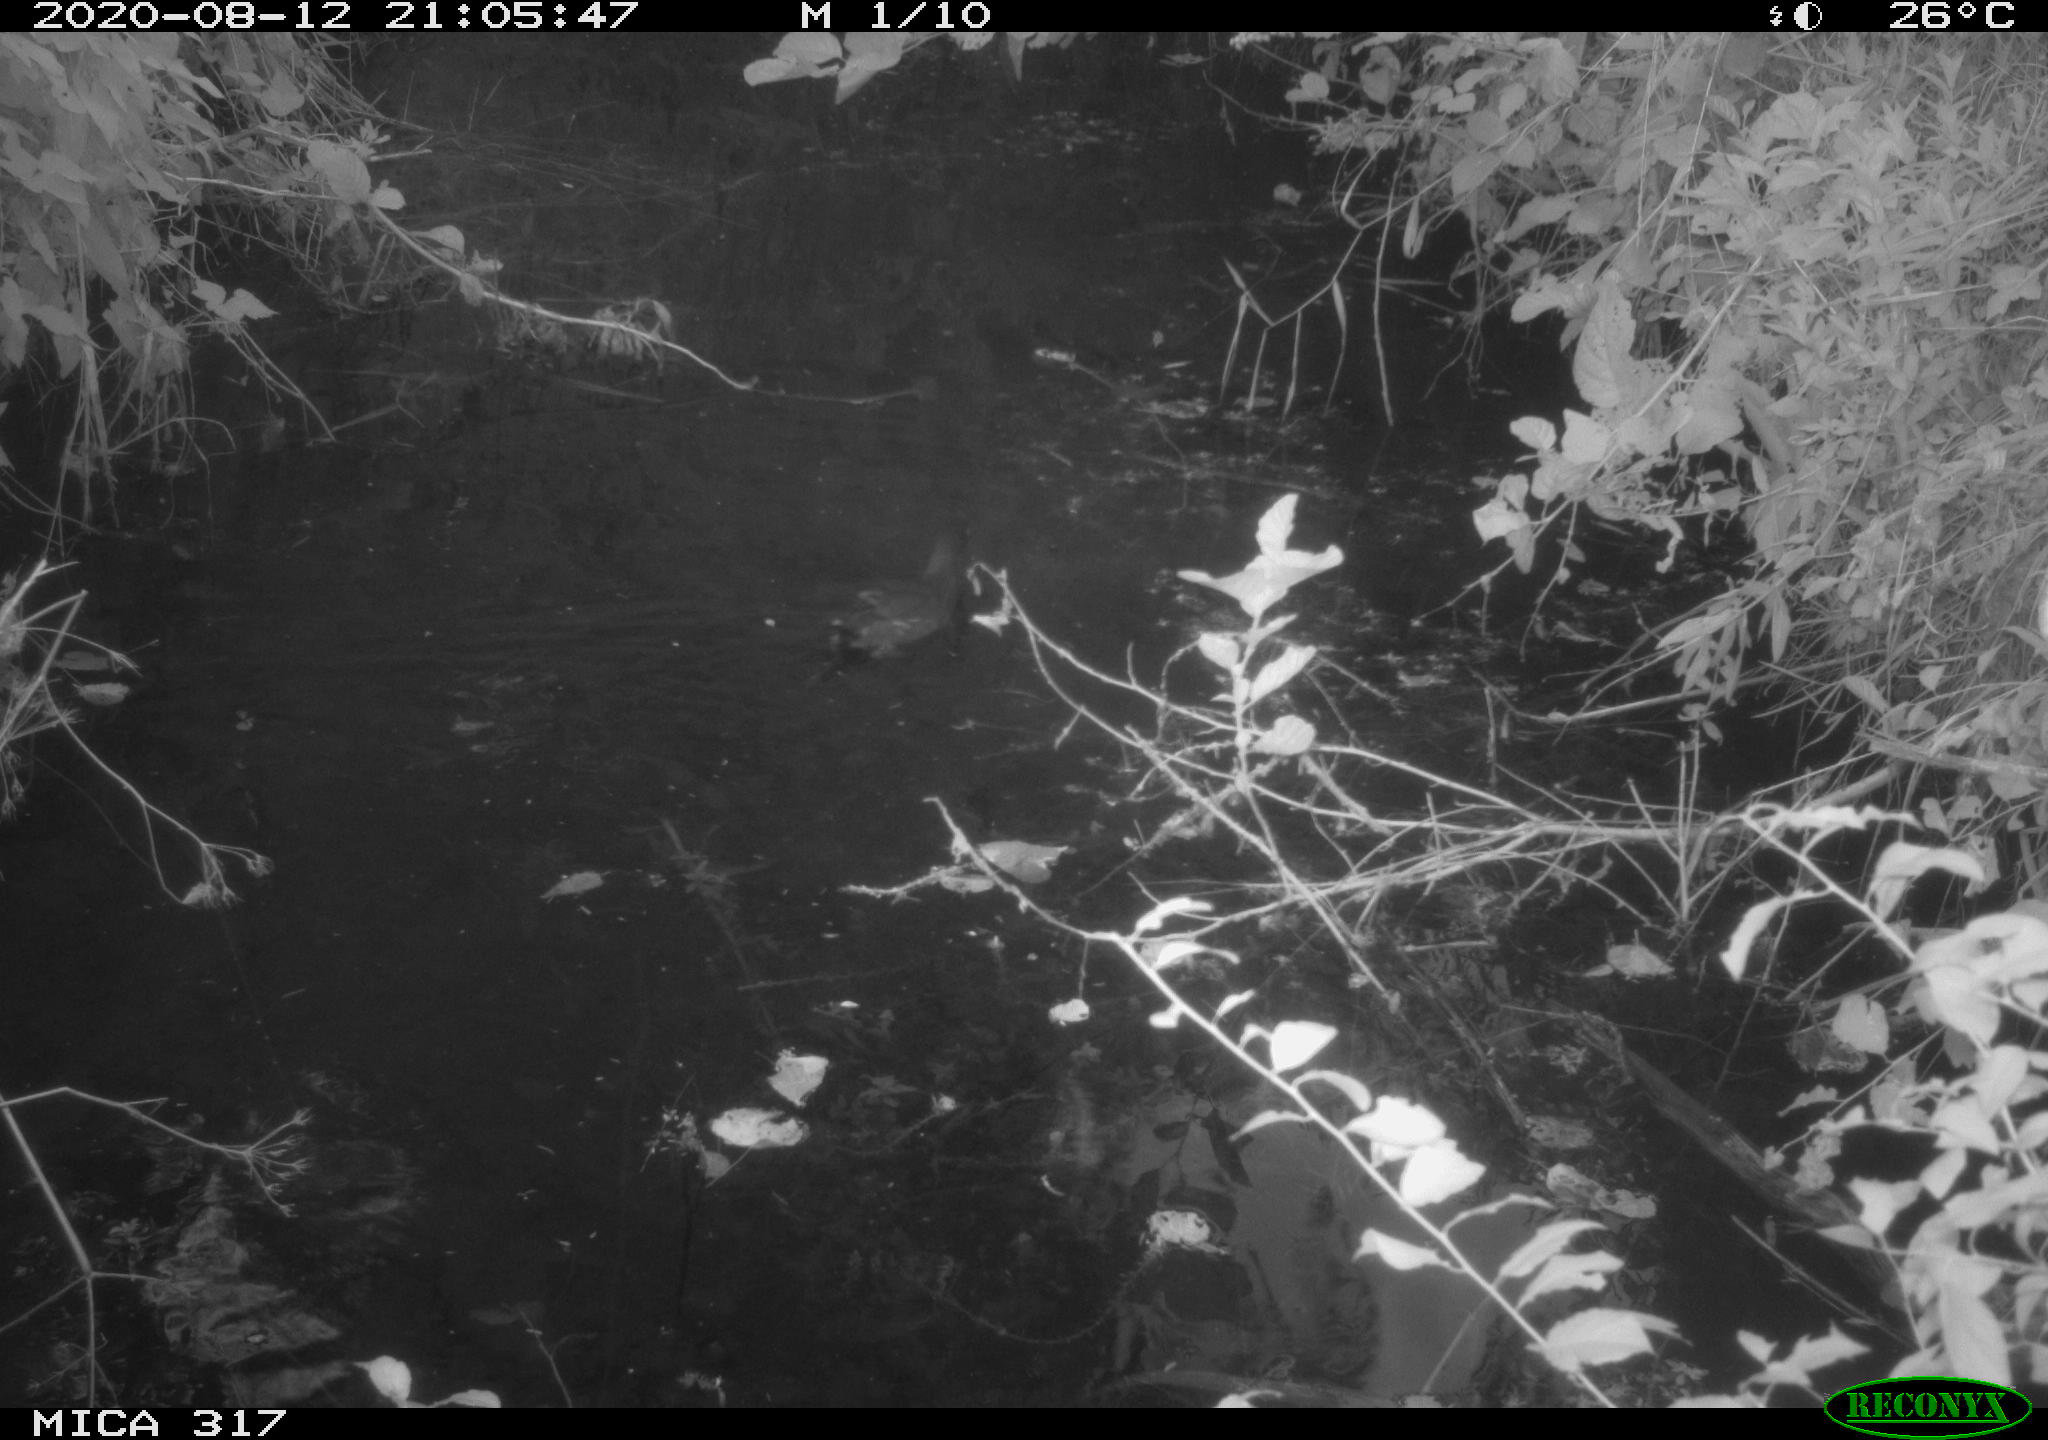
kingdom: Animalia
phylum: Chordata
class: Aves
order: Gruiformes
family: Rallidae
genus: Gallinula
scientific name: Gallinula chloropus
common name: Common moorhen
